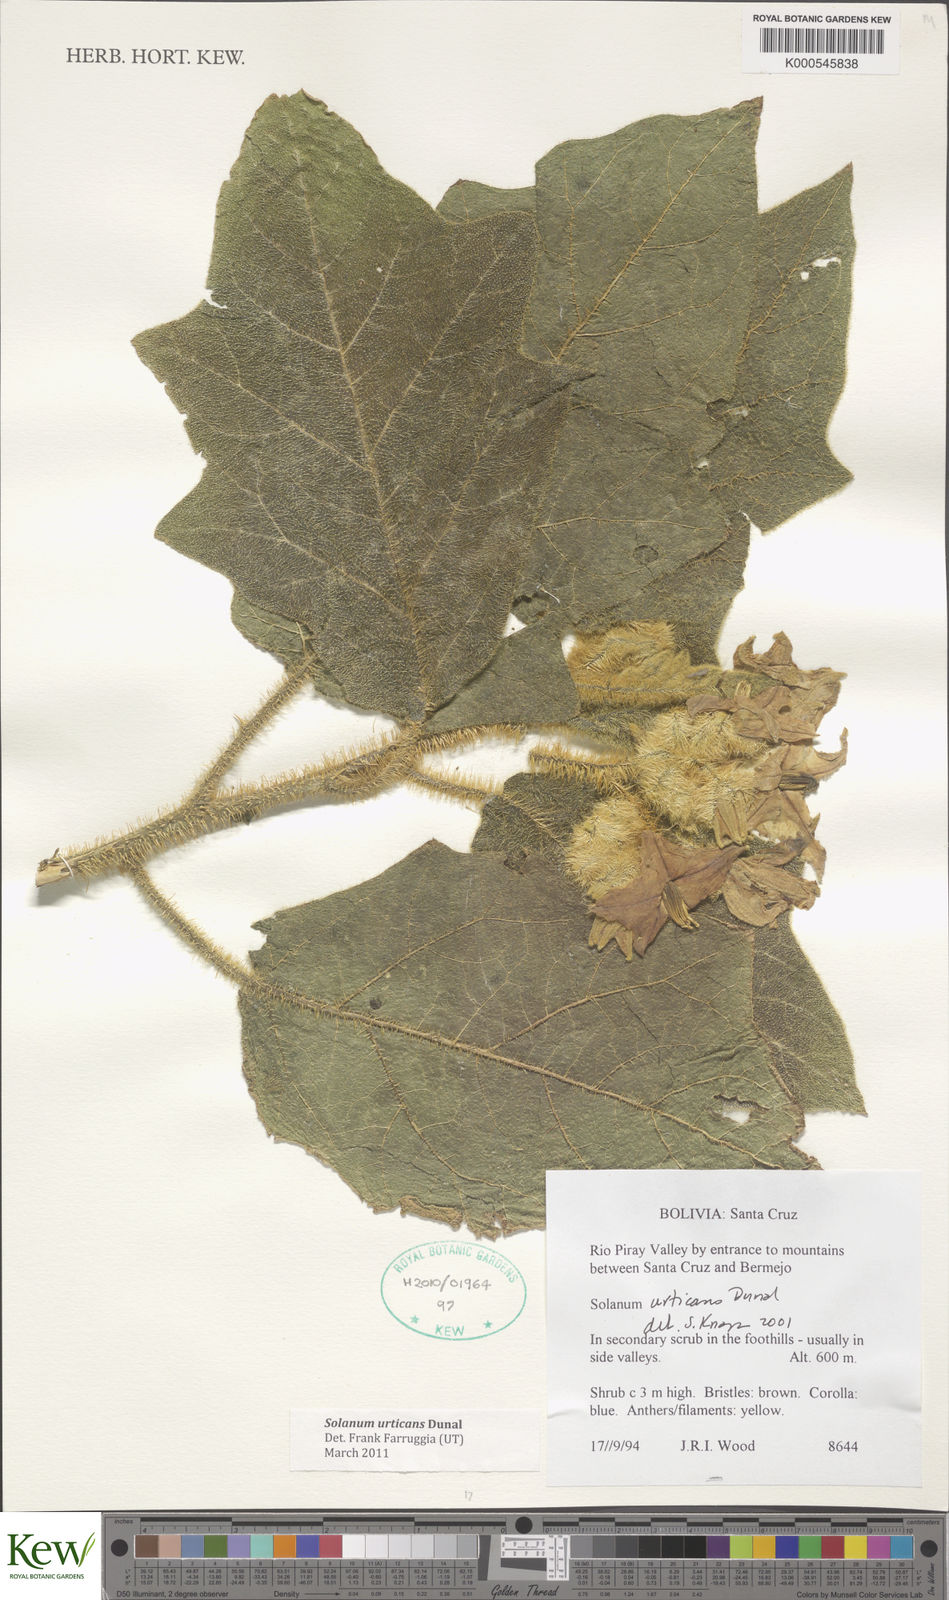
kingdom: Plantae
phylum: Tracheophyta
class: Magnoliopsida
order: Solanales
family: Solanaceae
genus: Solanum
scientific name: Solanum urticans
